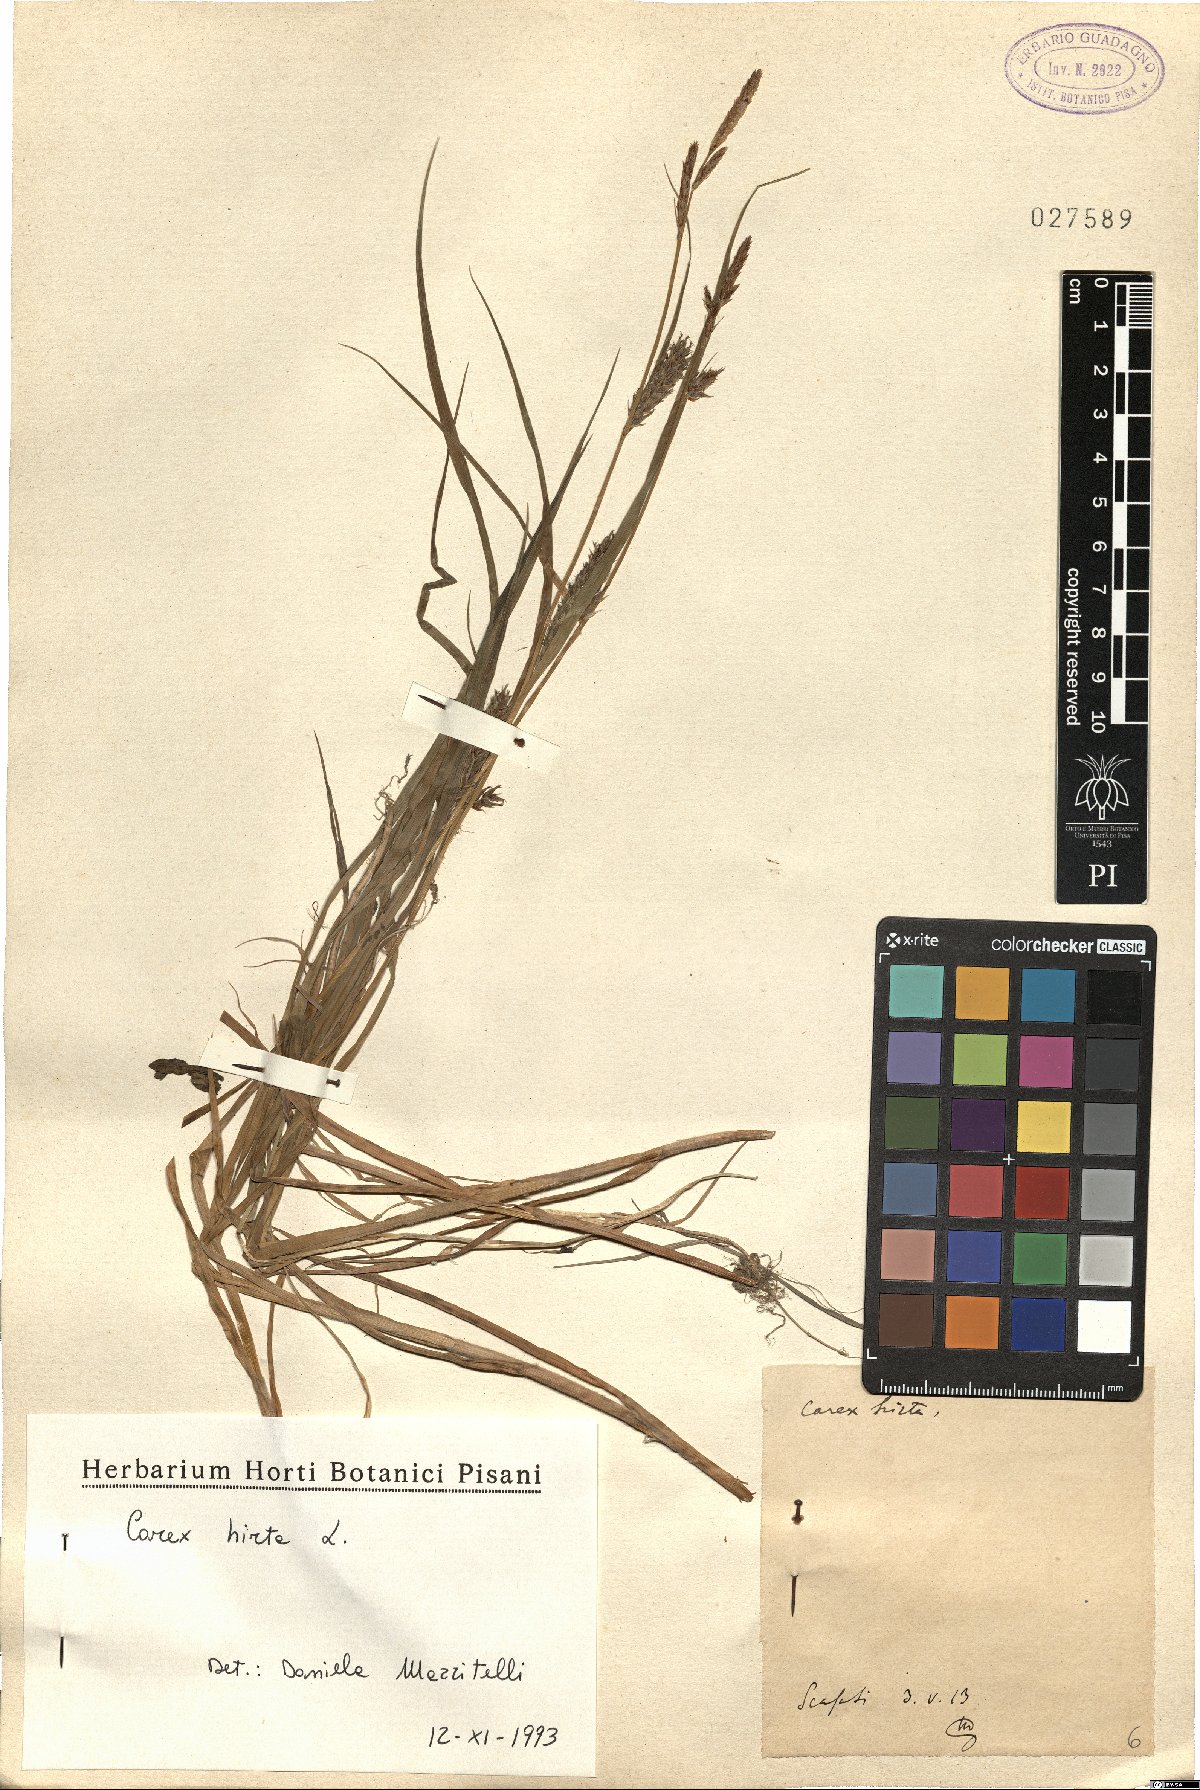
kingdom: Plantae
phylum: Tracheophyta
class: Liliopsida
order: Poales
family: Cyperaceae
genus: Carex
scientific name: Carex hirta
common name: Hairy sedge
